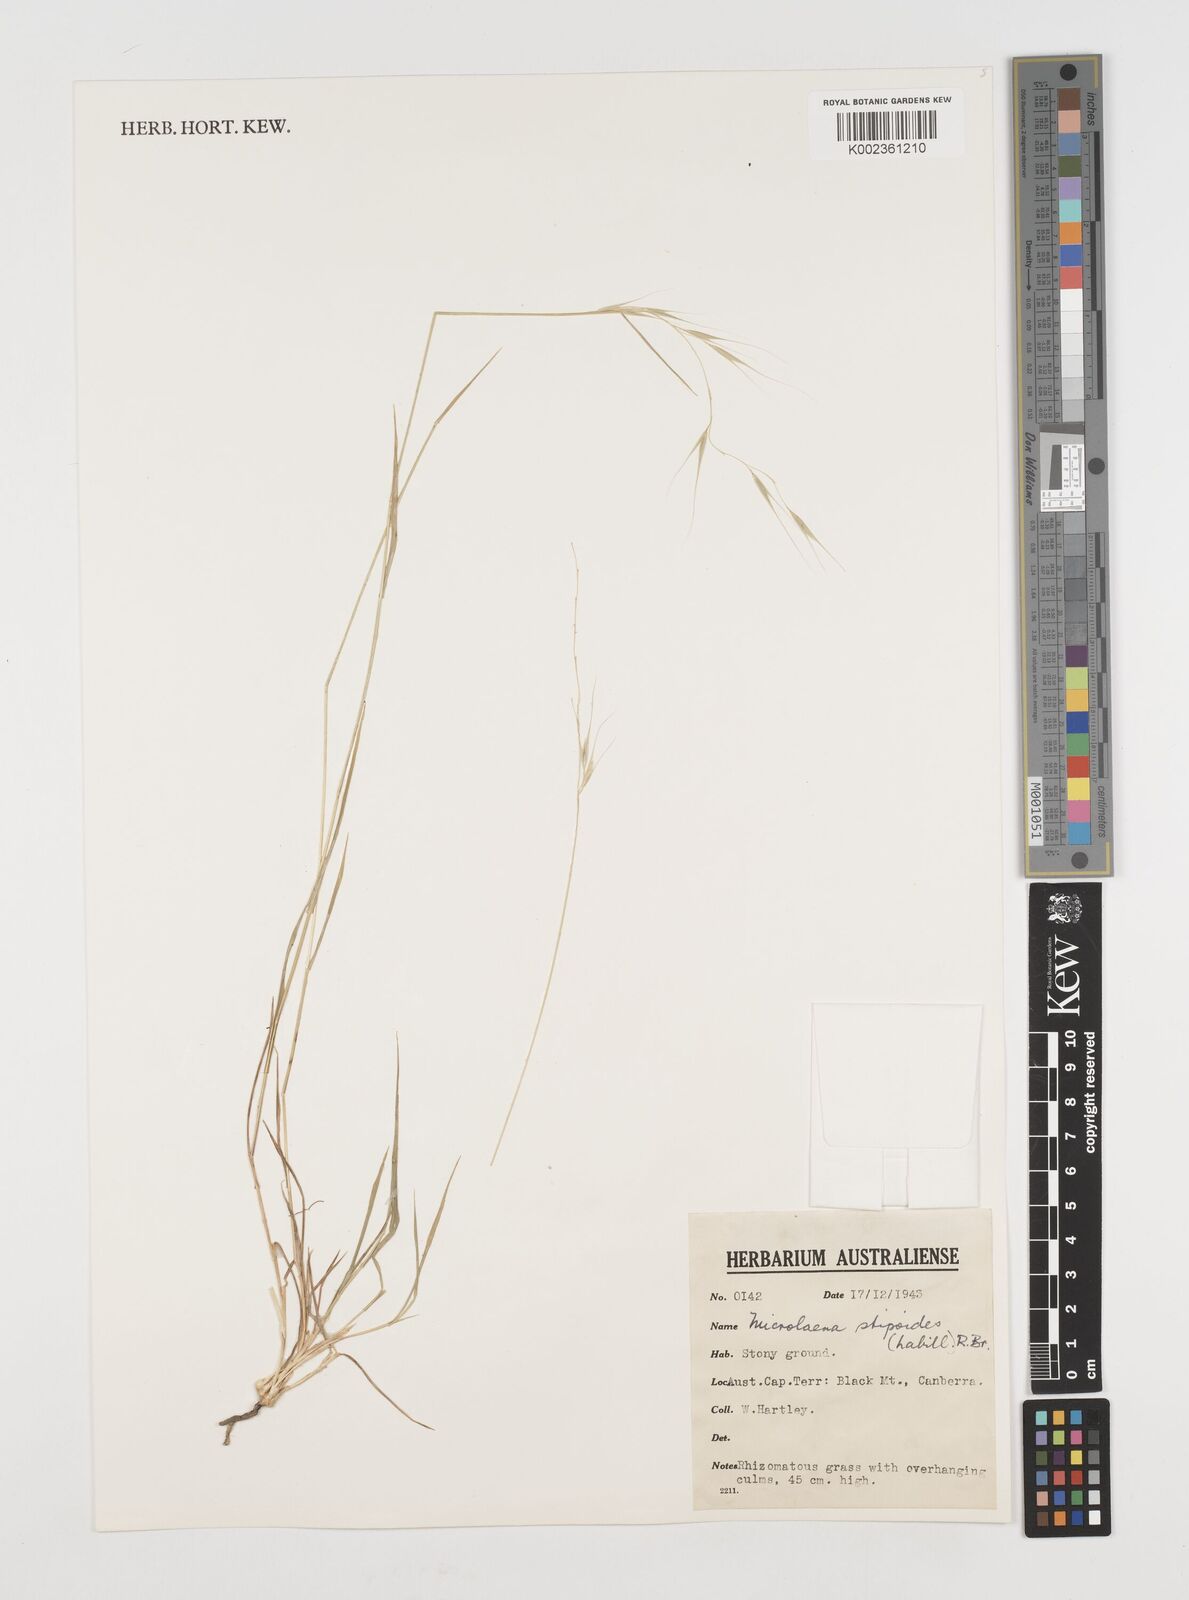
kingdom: Plantae
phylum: Tracheophyta
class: Liliopsida
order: Poales
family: Poaceae
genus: Microlaena
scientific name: Microlaena stipoides
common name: Meadow ricegrass
